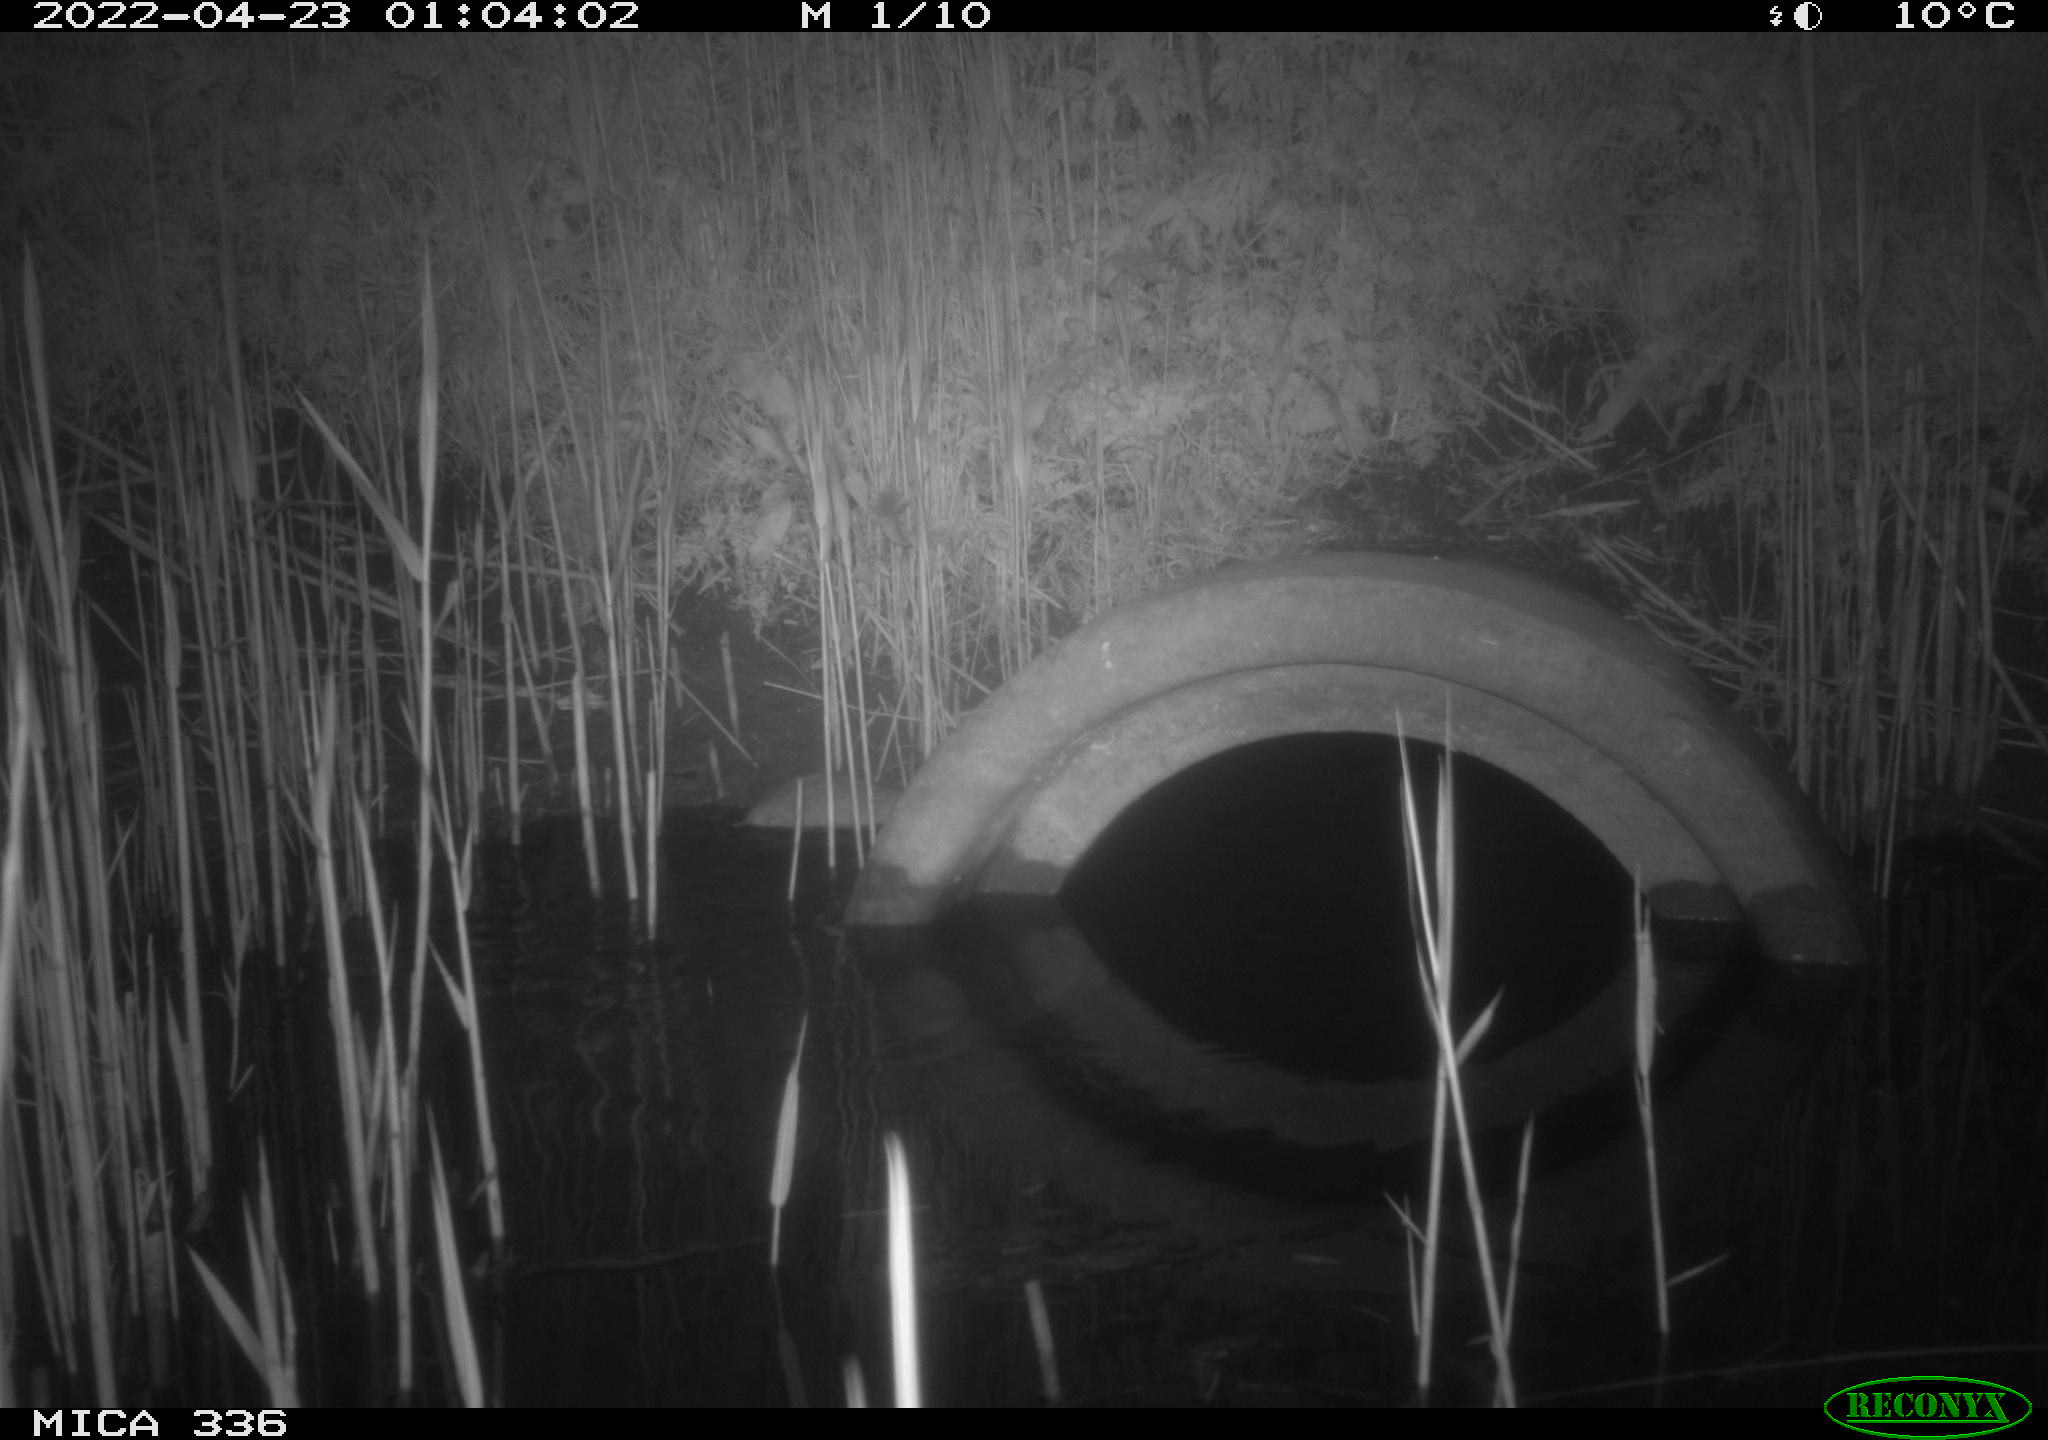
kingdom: Animalia
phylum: Chordata
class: Mammalia
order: Rodentia
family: Muridae
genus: Rattus
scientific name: Rattus norvegicus
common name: Brown rat
